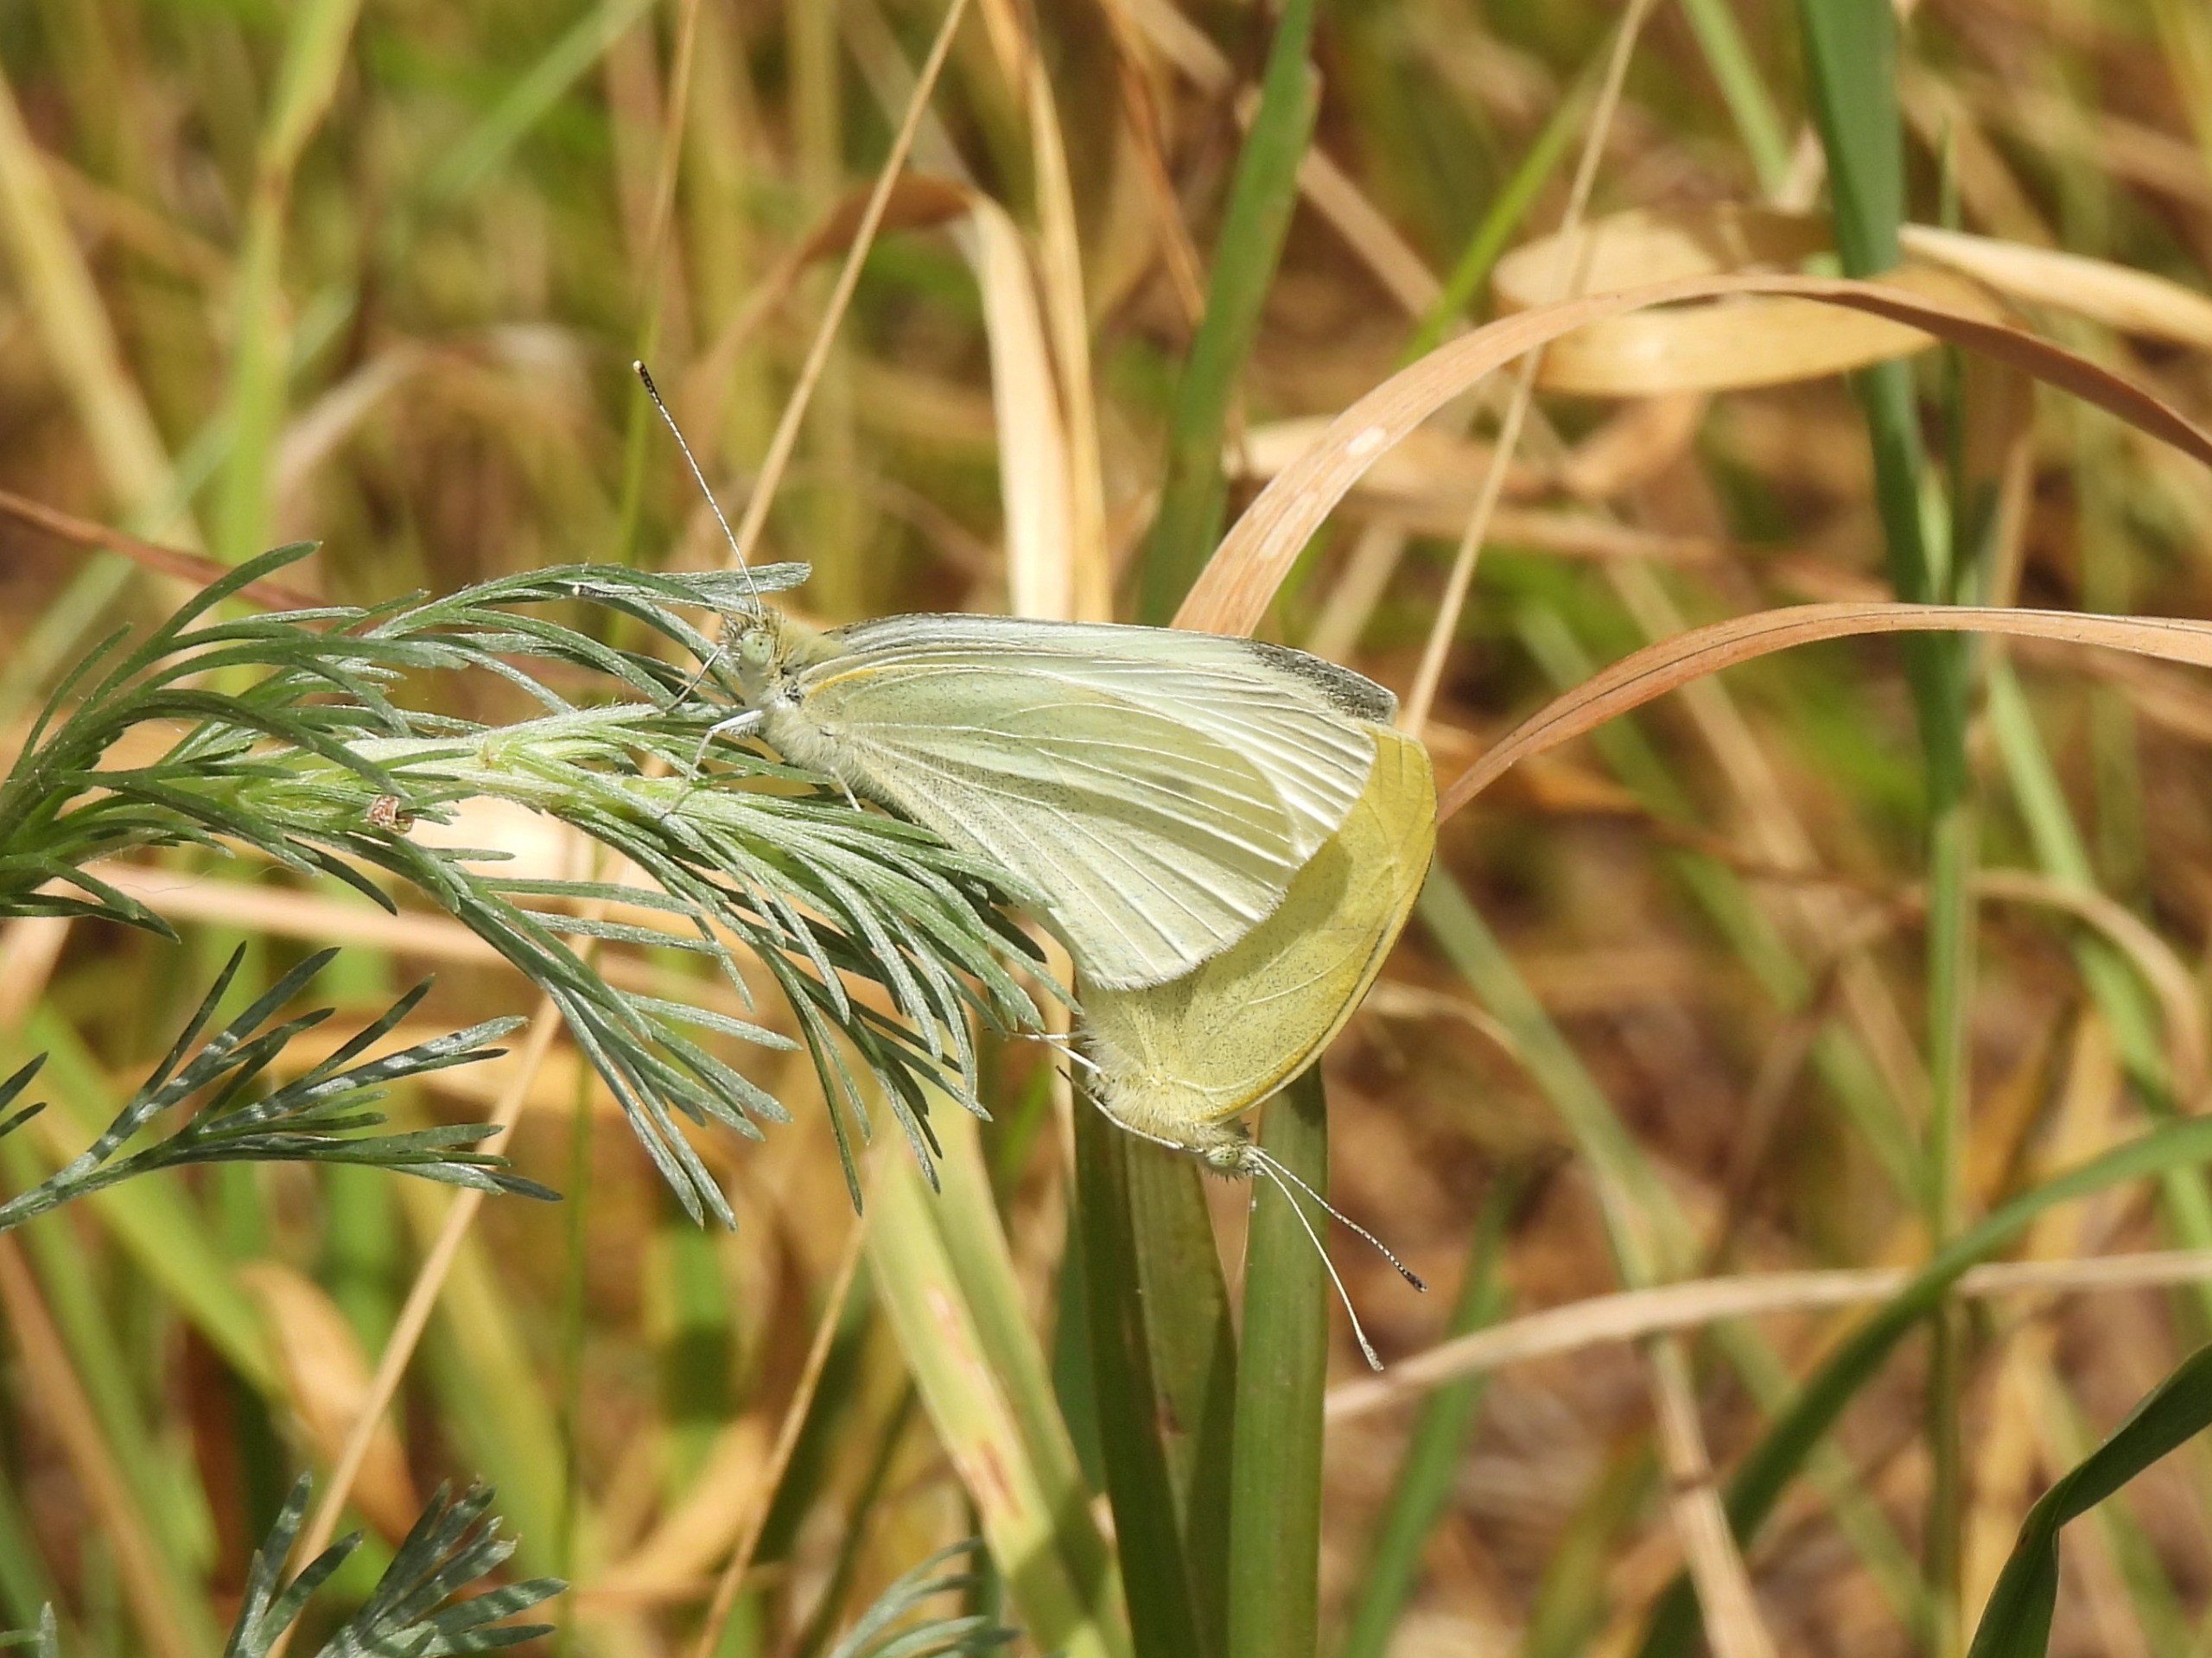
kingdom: Animalia
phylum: Arthropoda
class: Insecta
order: Lepidoptera
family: Pieridae
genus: Pieris
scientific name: Pieris rapae
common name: Lille kålsommerfugl
